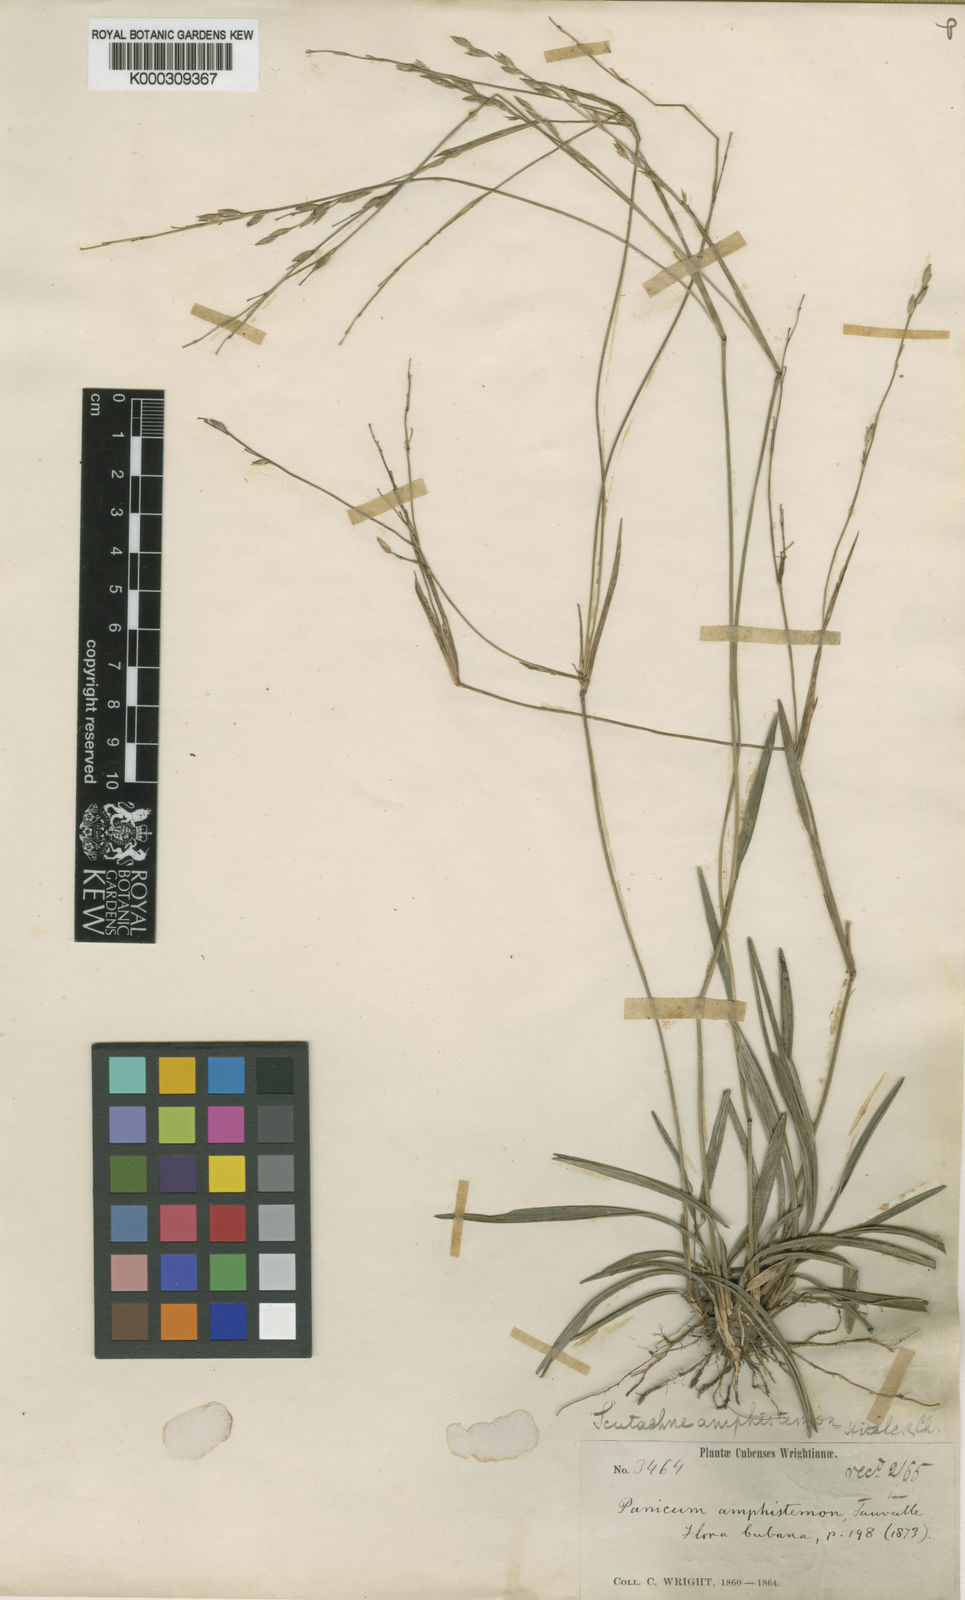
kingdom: Plantae
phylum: Tracheophyta
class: Liliopsida
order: Poales
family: Poaceae
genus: Mayariochloa
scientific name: Mayariochloa amphistemon
